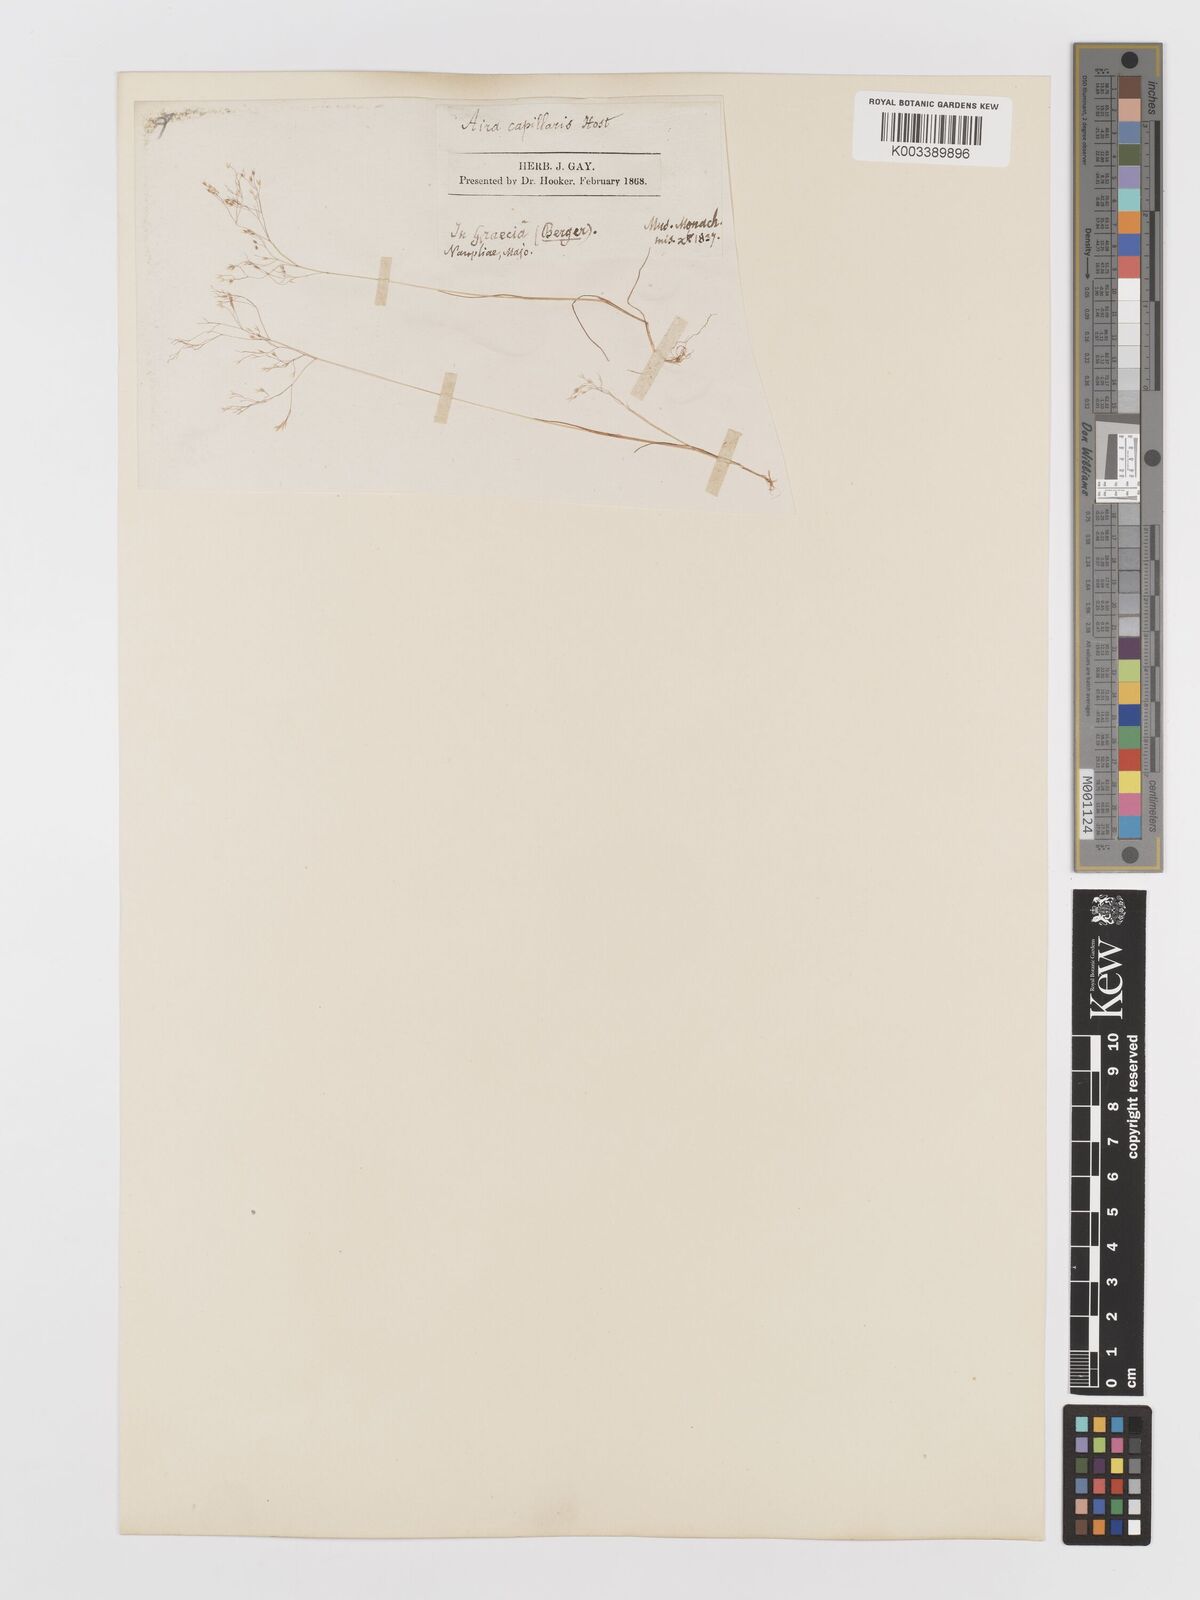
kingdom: Plantae
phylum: Tracheophyta
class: Liliopsida
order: Poales
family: Poaceae
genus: Aira
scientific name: Aira elegans
